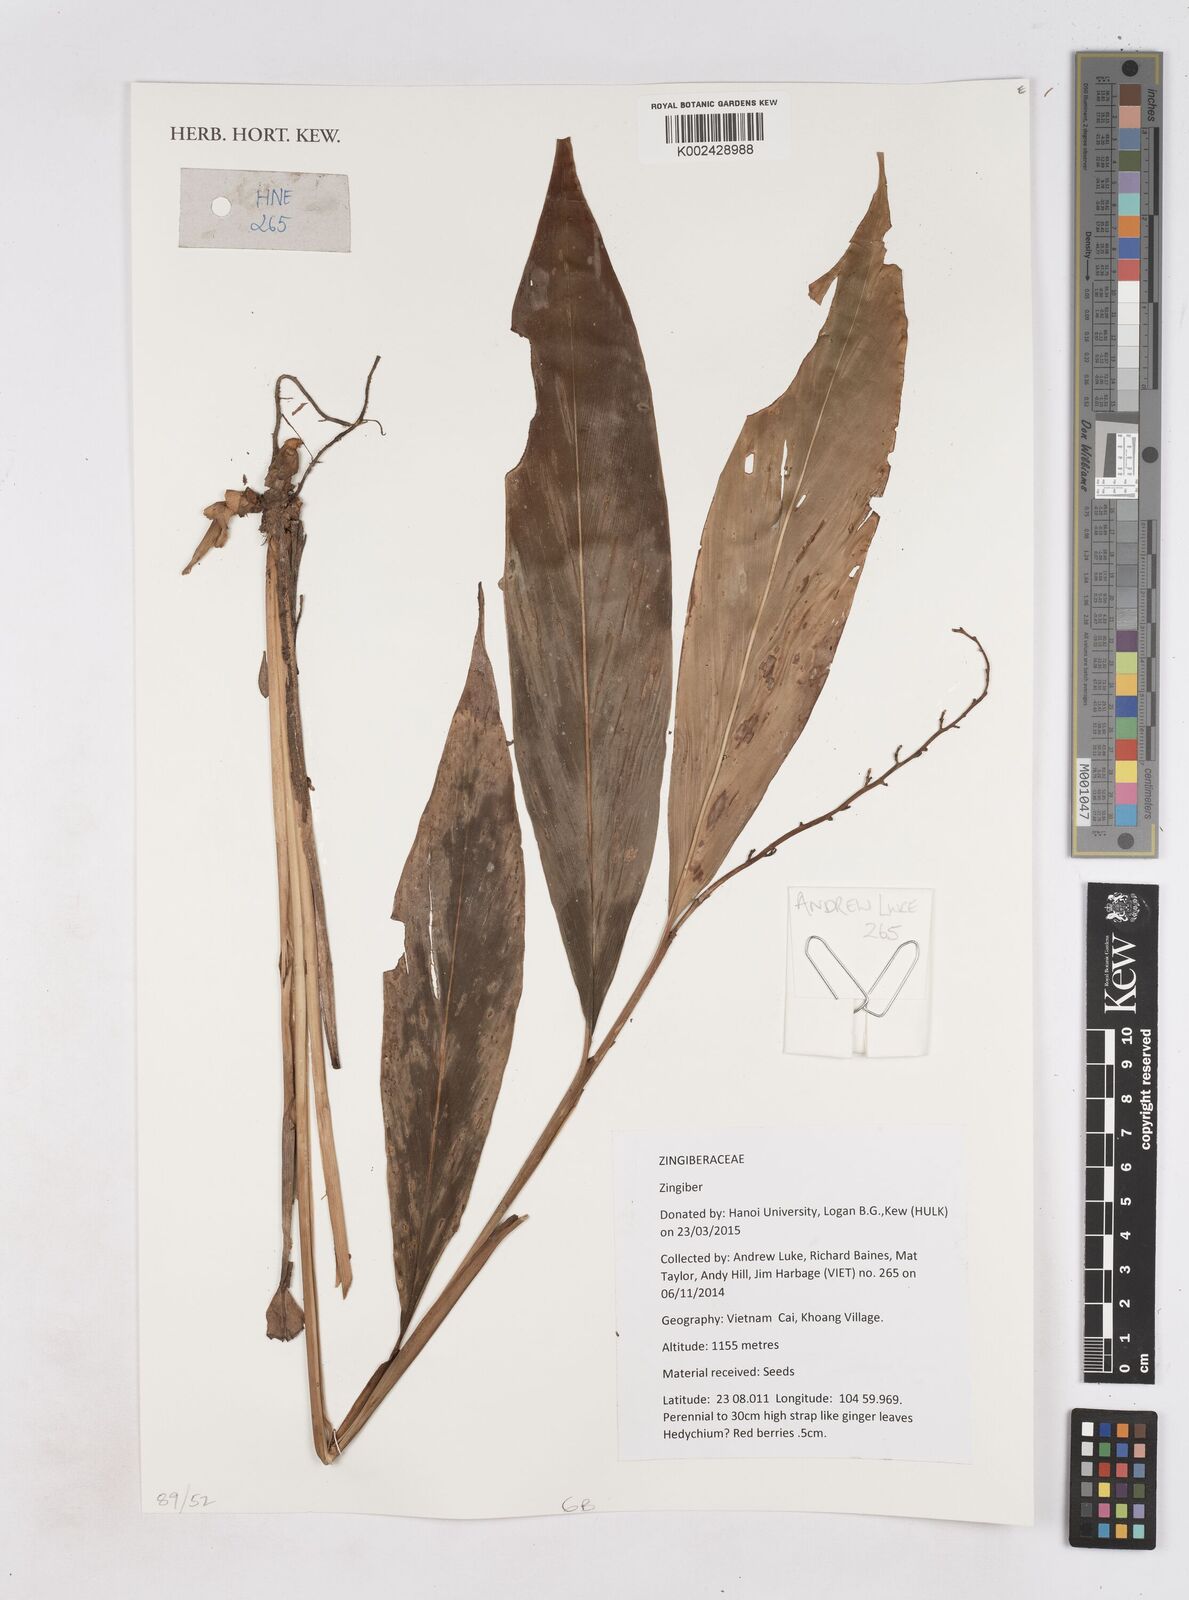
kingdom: Plantae
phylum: Tracheophyta
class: Liliopsida
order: Zingiberales
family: Zingiberaceae
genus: Zingiber
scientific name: Zingiber
